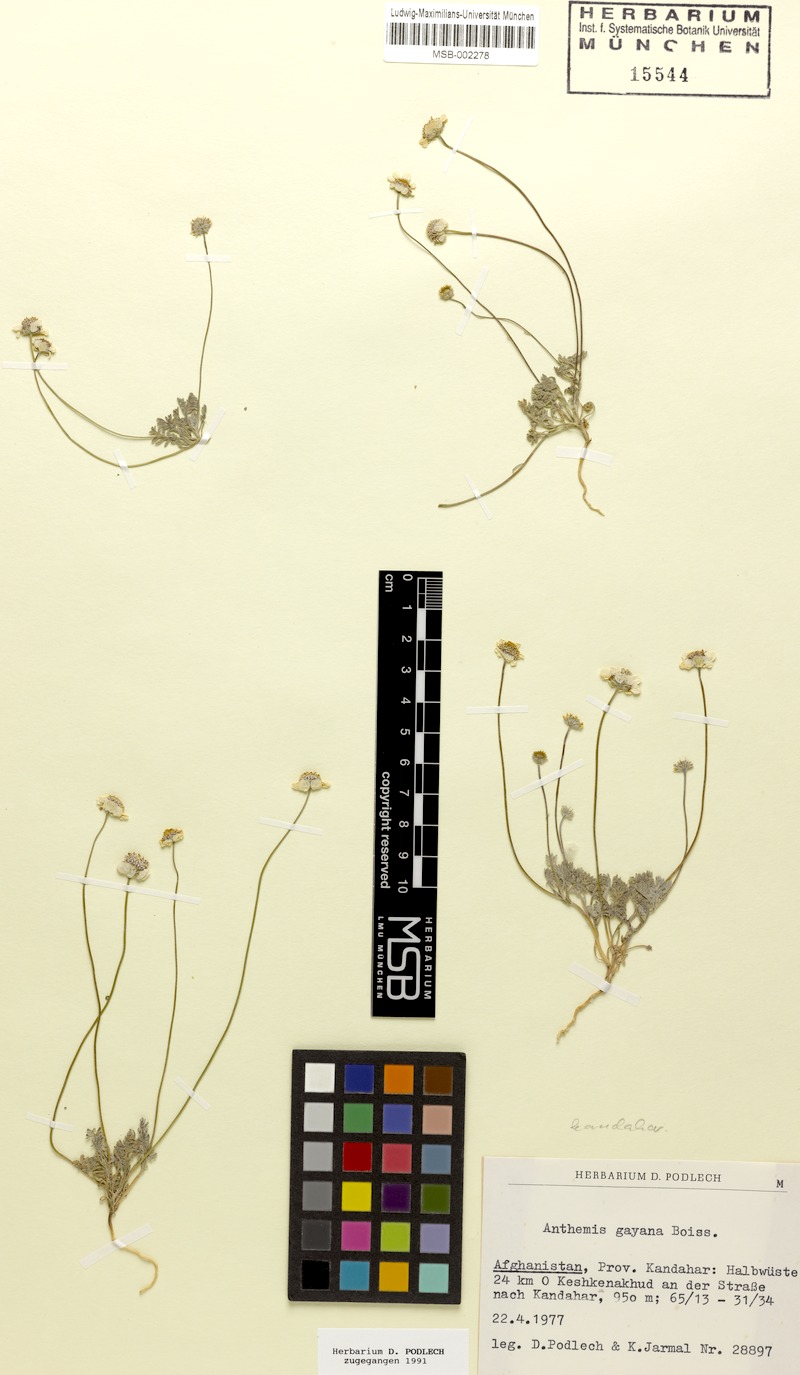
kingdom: Plantae
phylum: Tracheophyta
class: Magnoliopsida
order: Asterales
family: Asteraceae
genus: Anthemis
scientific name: Anthemis kandaharica
